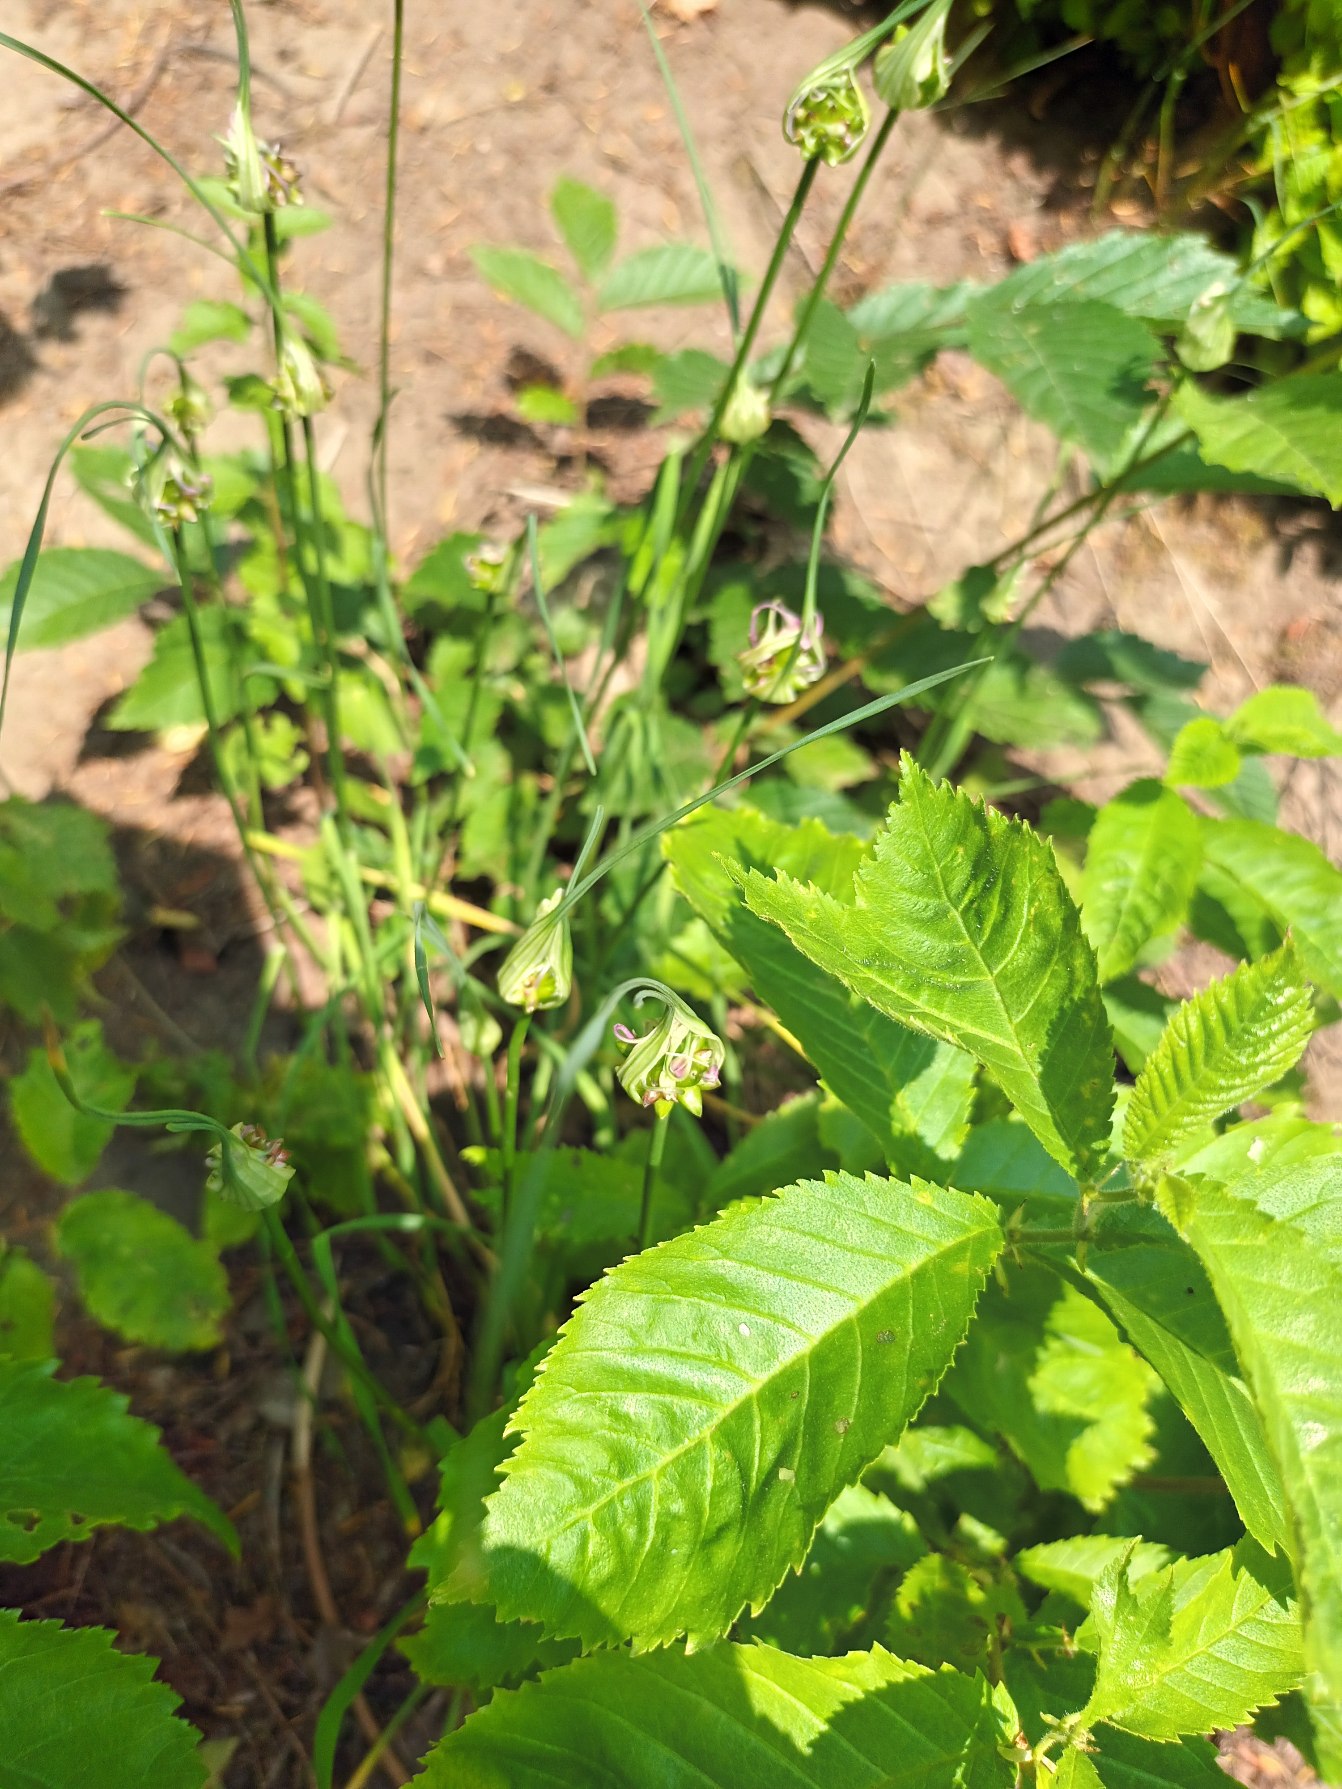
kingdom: Plantae
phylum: Tracheophyta
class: Liliopsida
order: Asparagales
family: Amaryllidaceae
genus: Allium
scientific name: Allium carinatum
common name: Kølet løg
